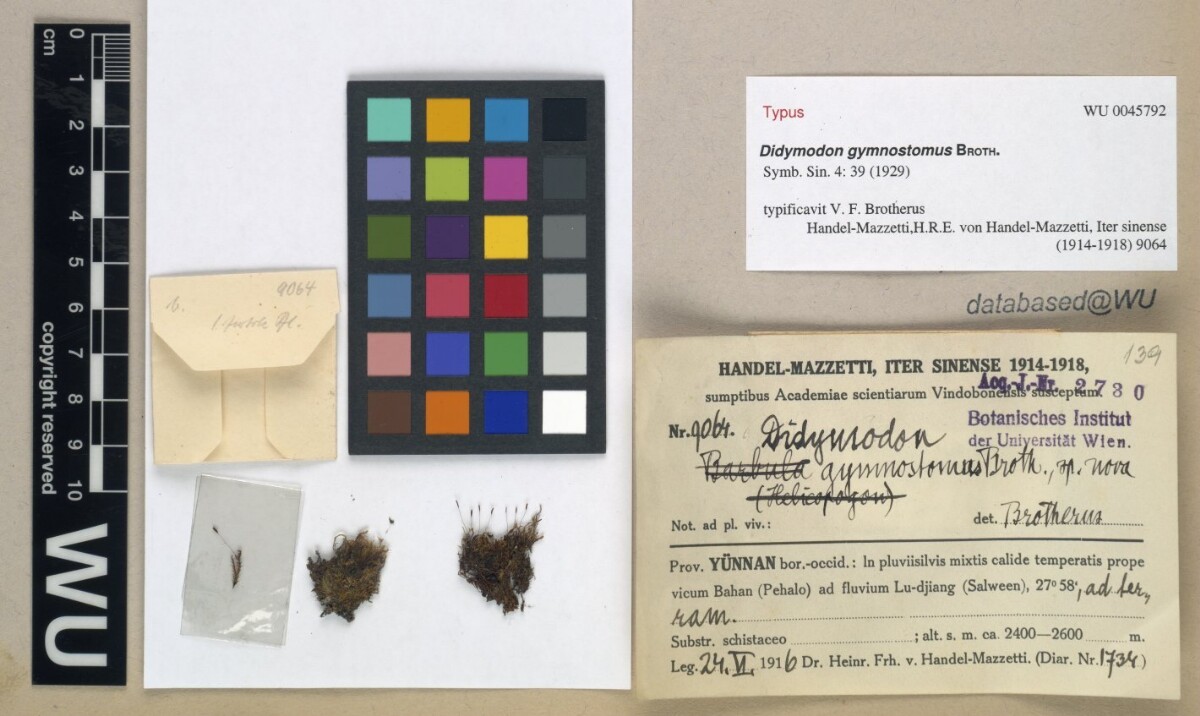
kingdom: Plantae
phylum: Bryophyta
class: Bryopsida
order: Pottiales
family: Pottiaceae
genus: Bryoerythrophyllum
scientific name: Bryoerythrophyllum gymnostomum
